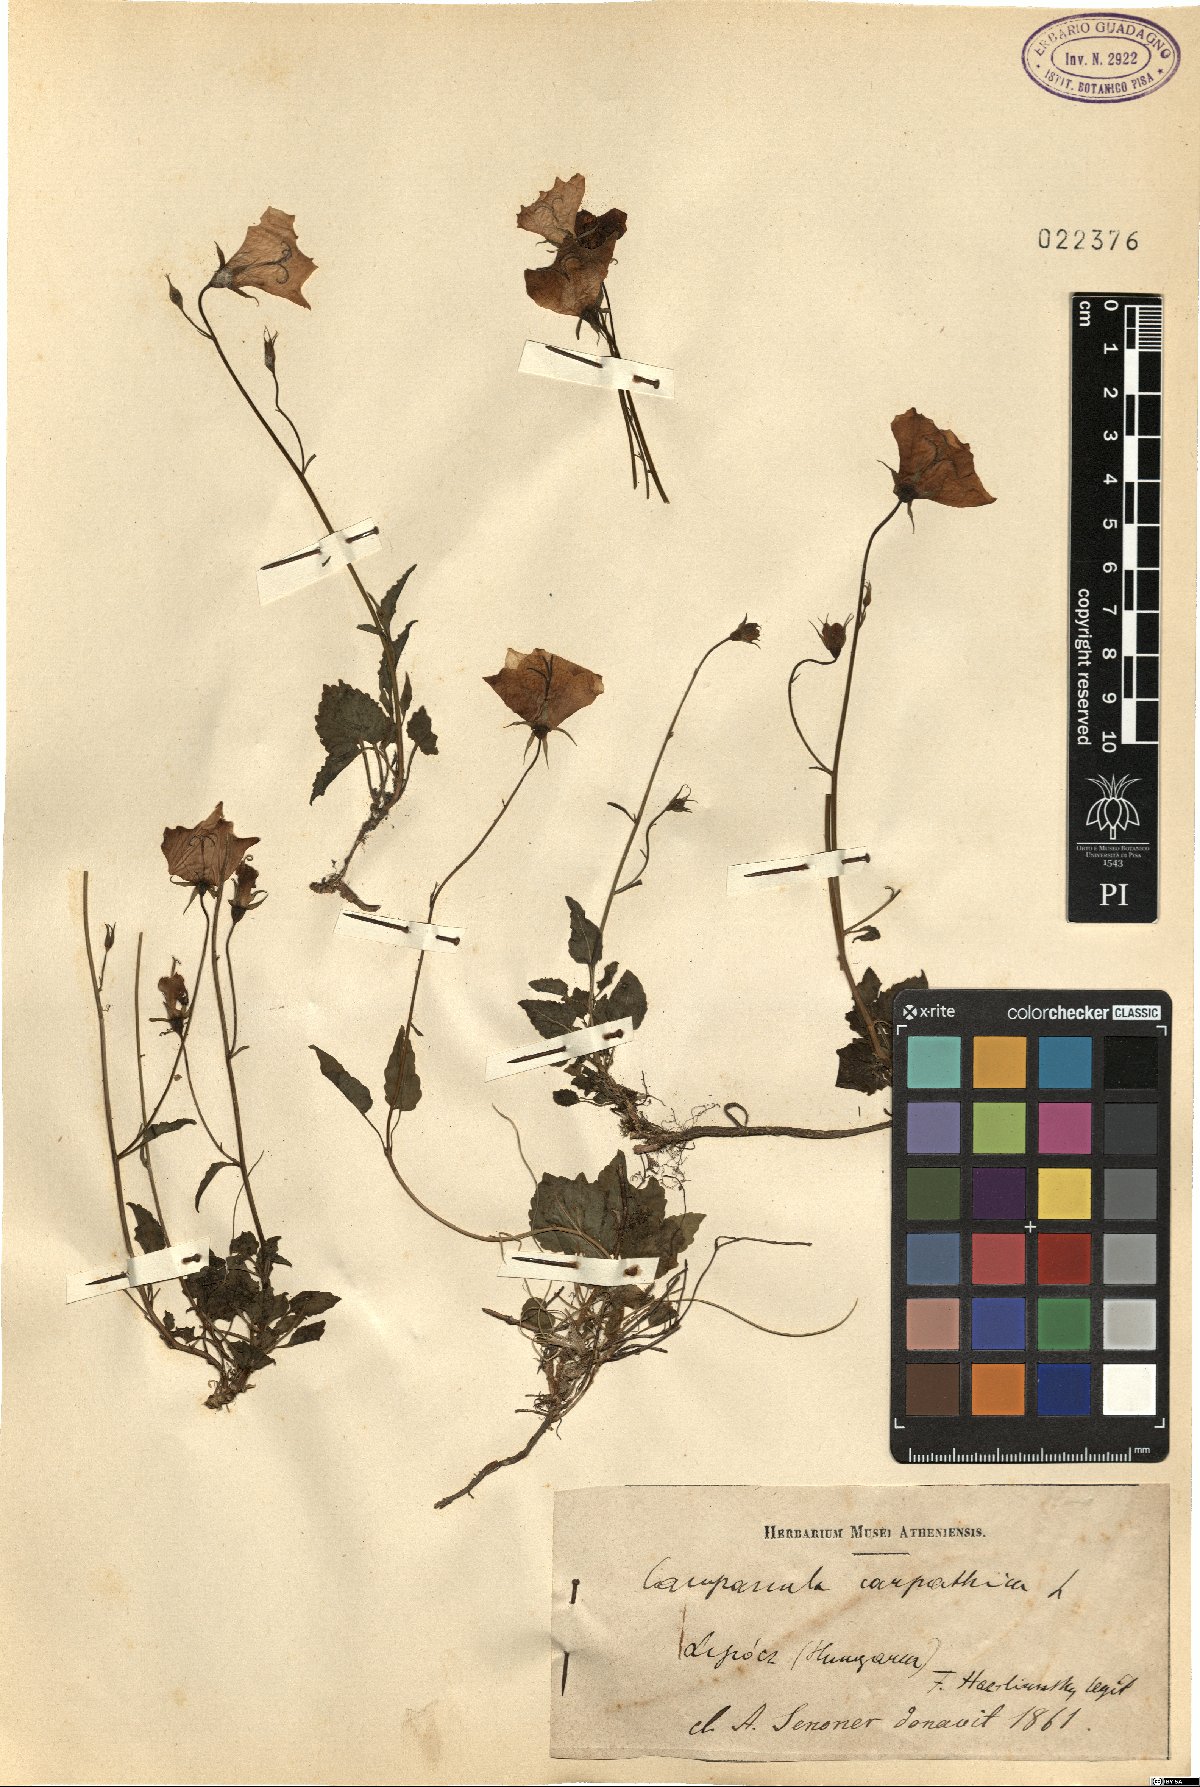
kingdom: Plantae
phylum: Tracheophyta
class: Magnoliopsida
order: Asterales
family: Campanulaceae
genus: Campanula
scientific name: Campanula carpatica
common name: Tussock bellflower
